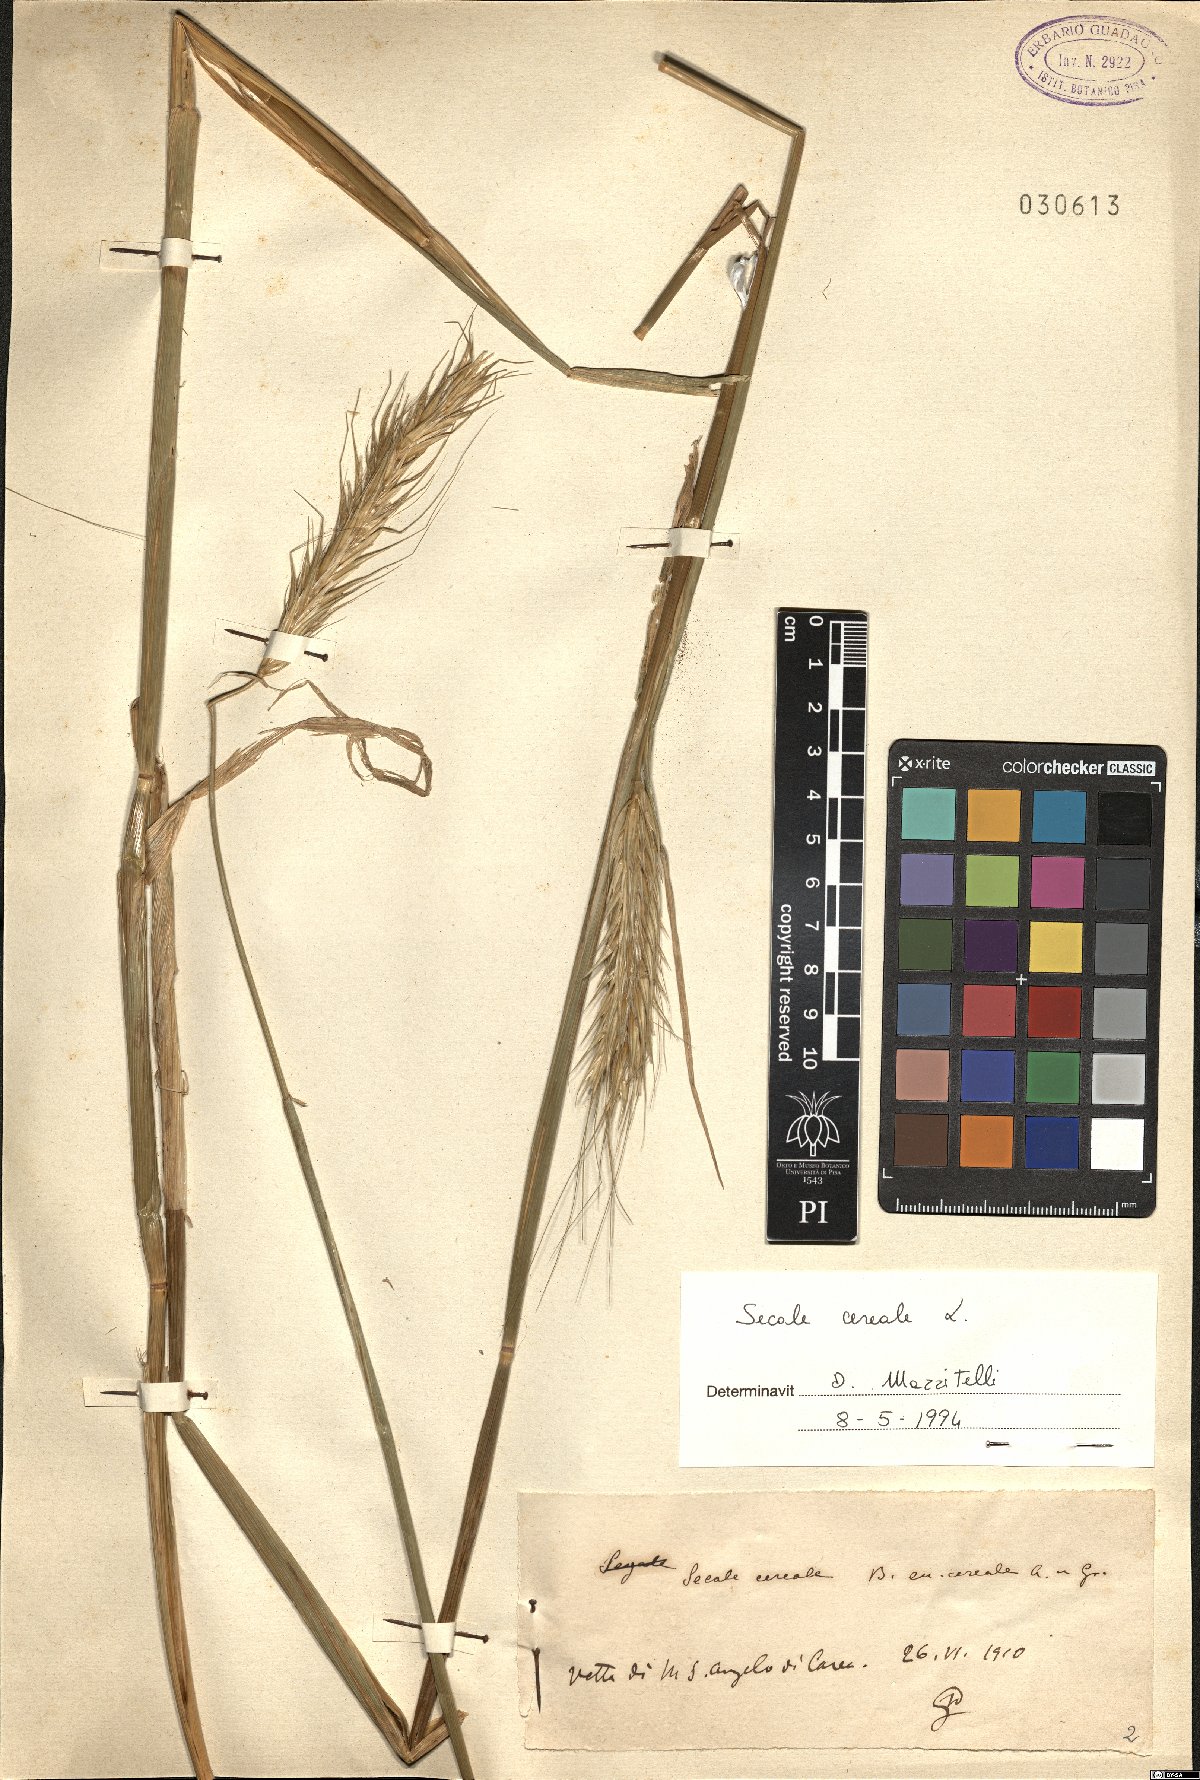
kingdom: Plantae
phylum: Tracheophyta
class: Liliopsida
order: Poales
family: Poaceae
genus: Secale
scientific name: Secale cereale
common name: Rye
